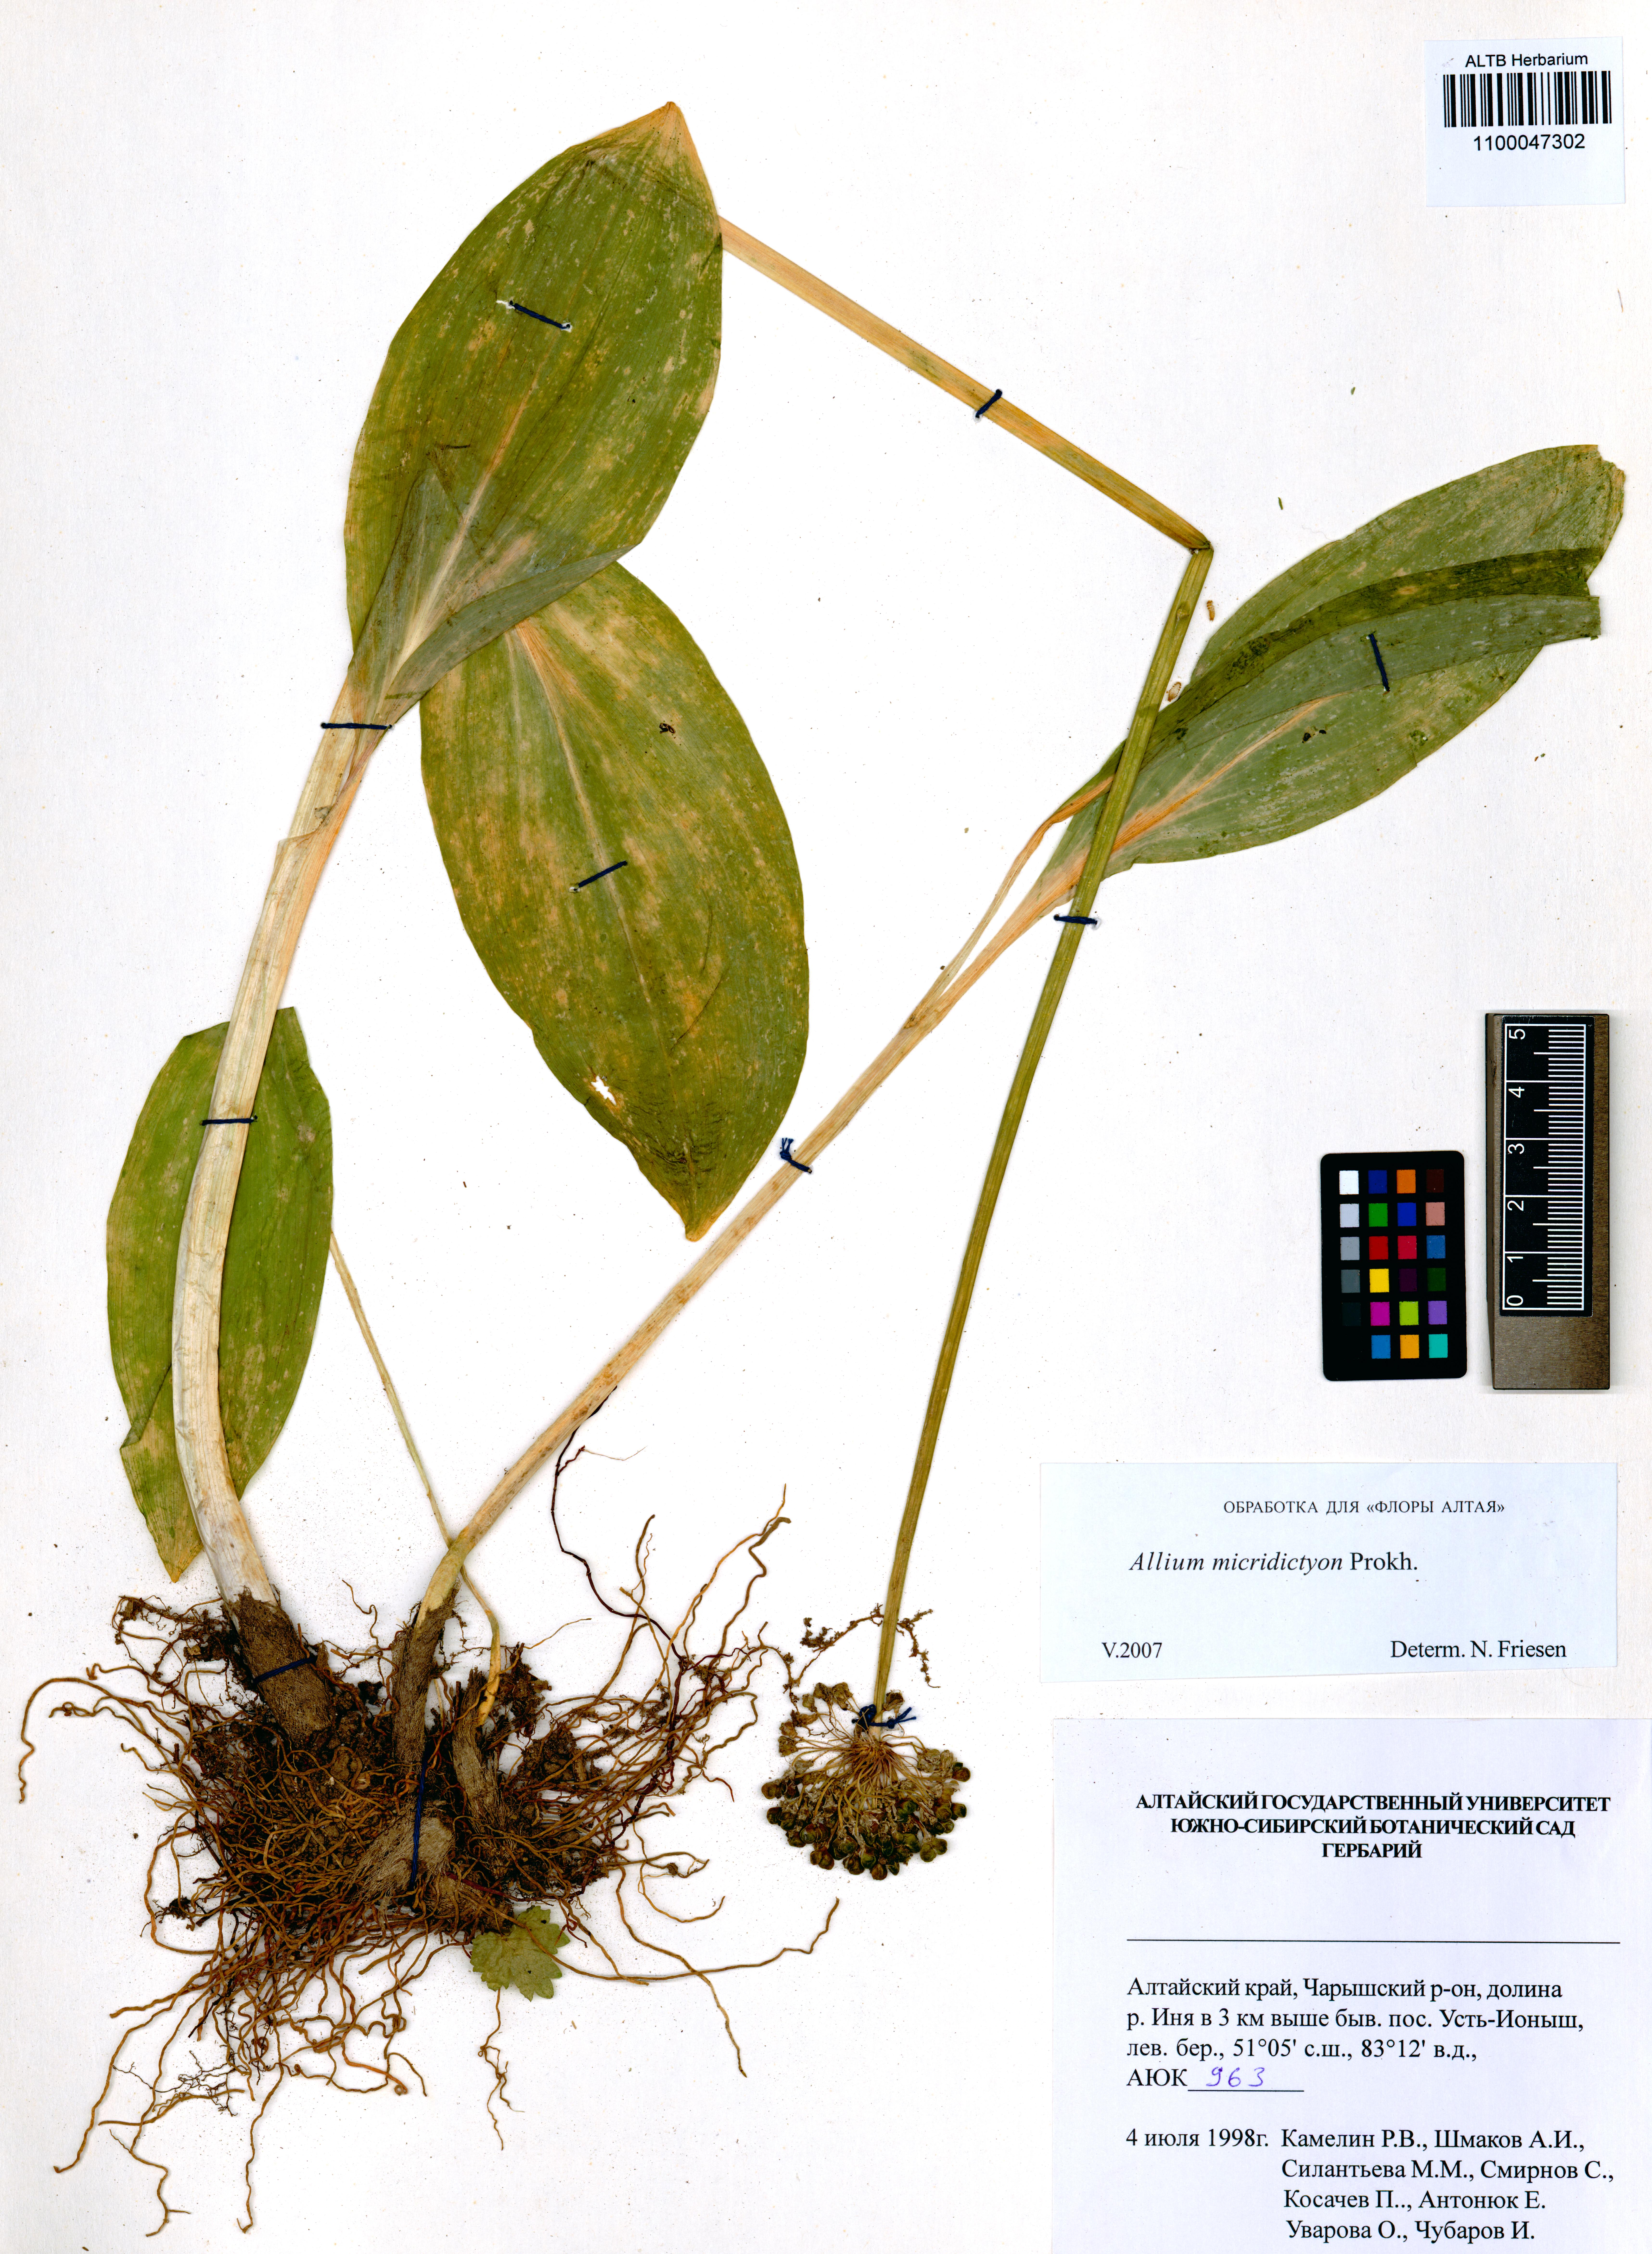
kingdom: Plantae
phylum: Tracheophyta
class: Liliopsida
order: Asparagales
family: Amaryllidaceae
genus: Allium
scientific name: Allium microdictyon
